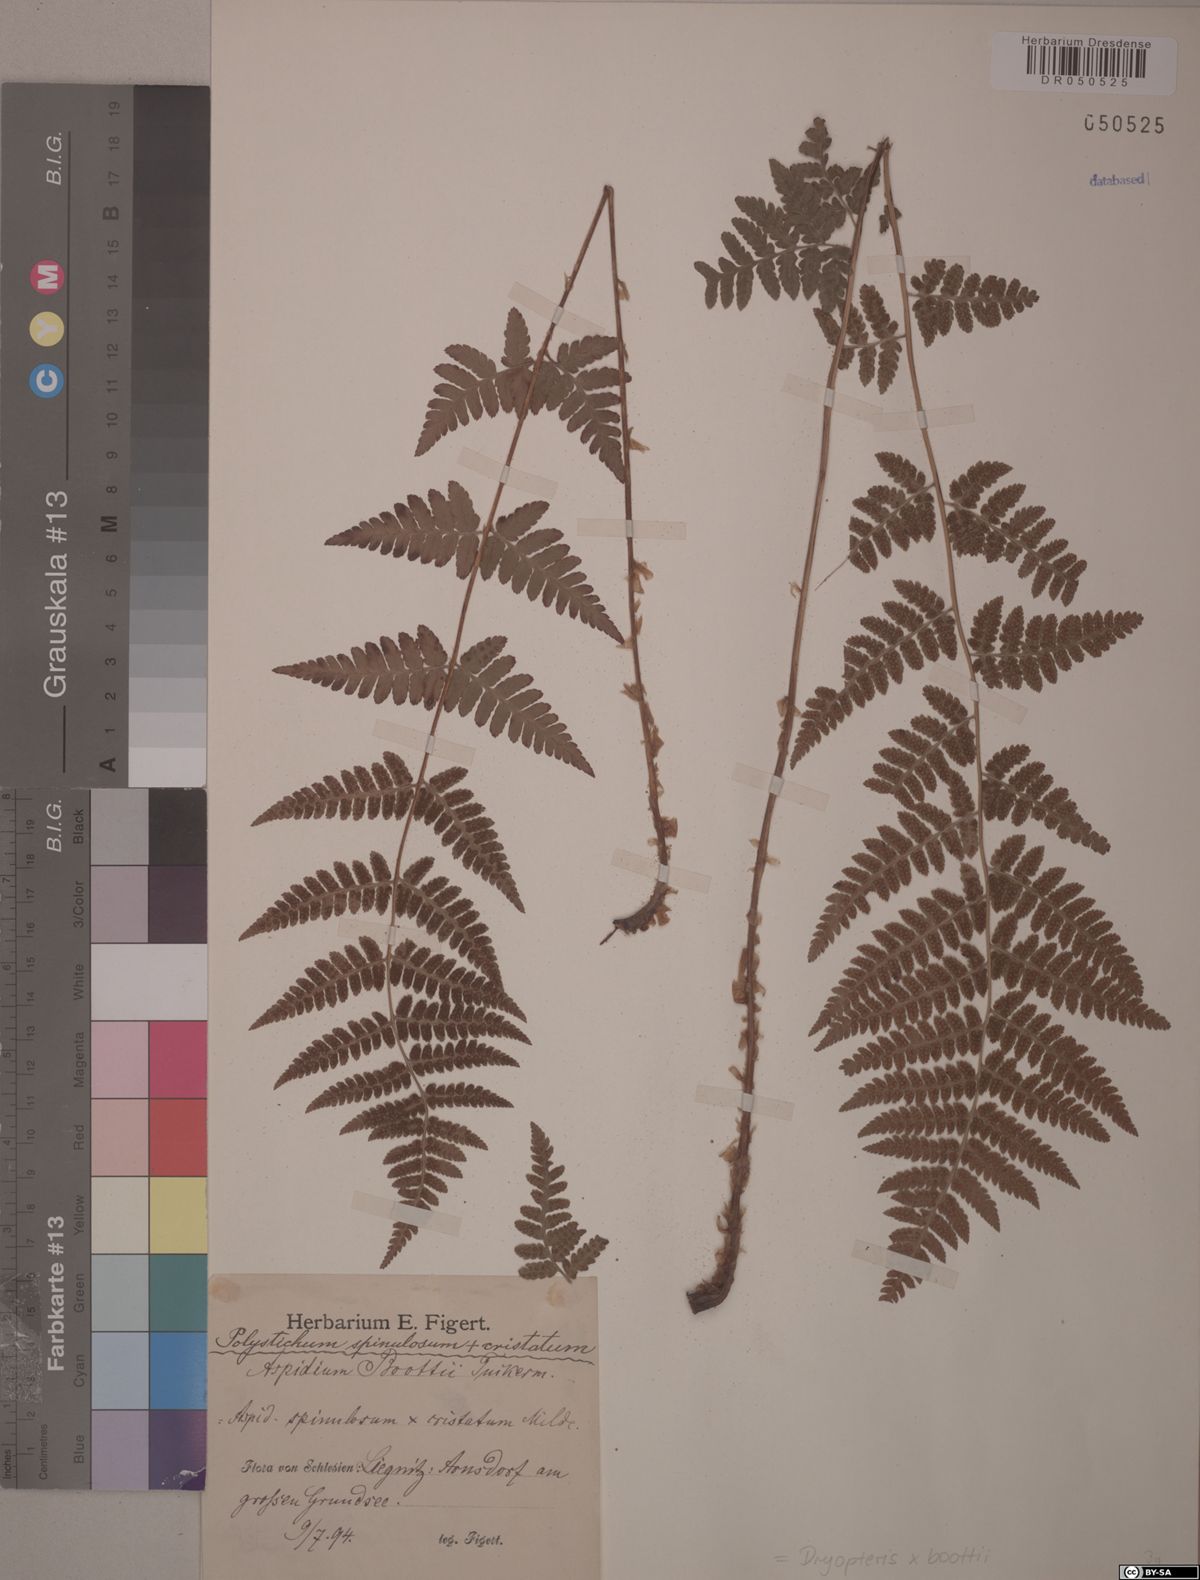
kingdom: Plantae
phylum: Tracheophyta
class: Polypodiopsida
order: Polypodiales
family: Dryopteridaceae
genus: Dryopteris
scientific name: Dryopteris boottii
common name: Boott's fern
